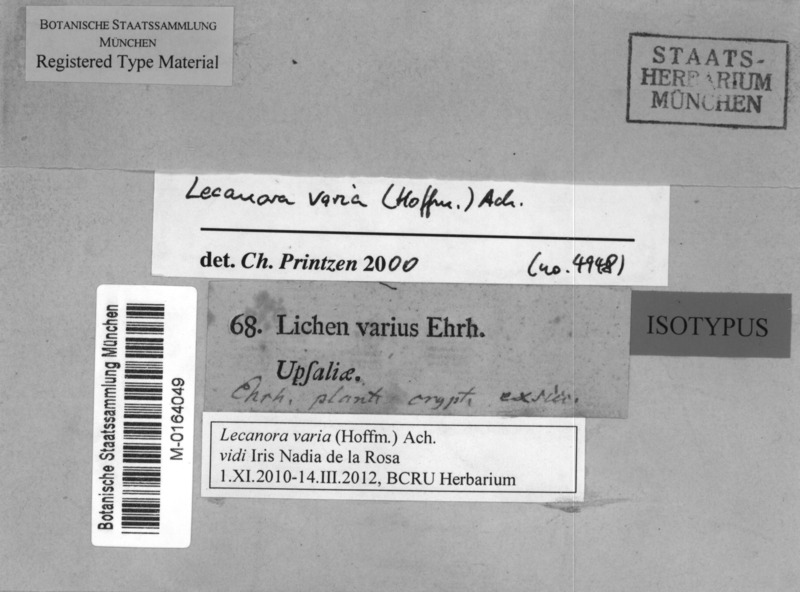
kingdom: Fungi
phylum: Ascomycota
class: Lecanoromycetes
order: Lecanorales
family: Lecanoraceae
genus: Straminella
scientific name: Straminella varia
